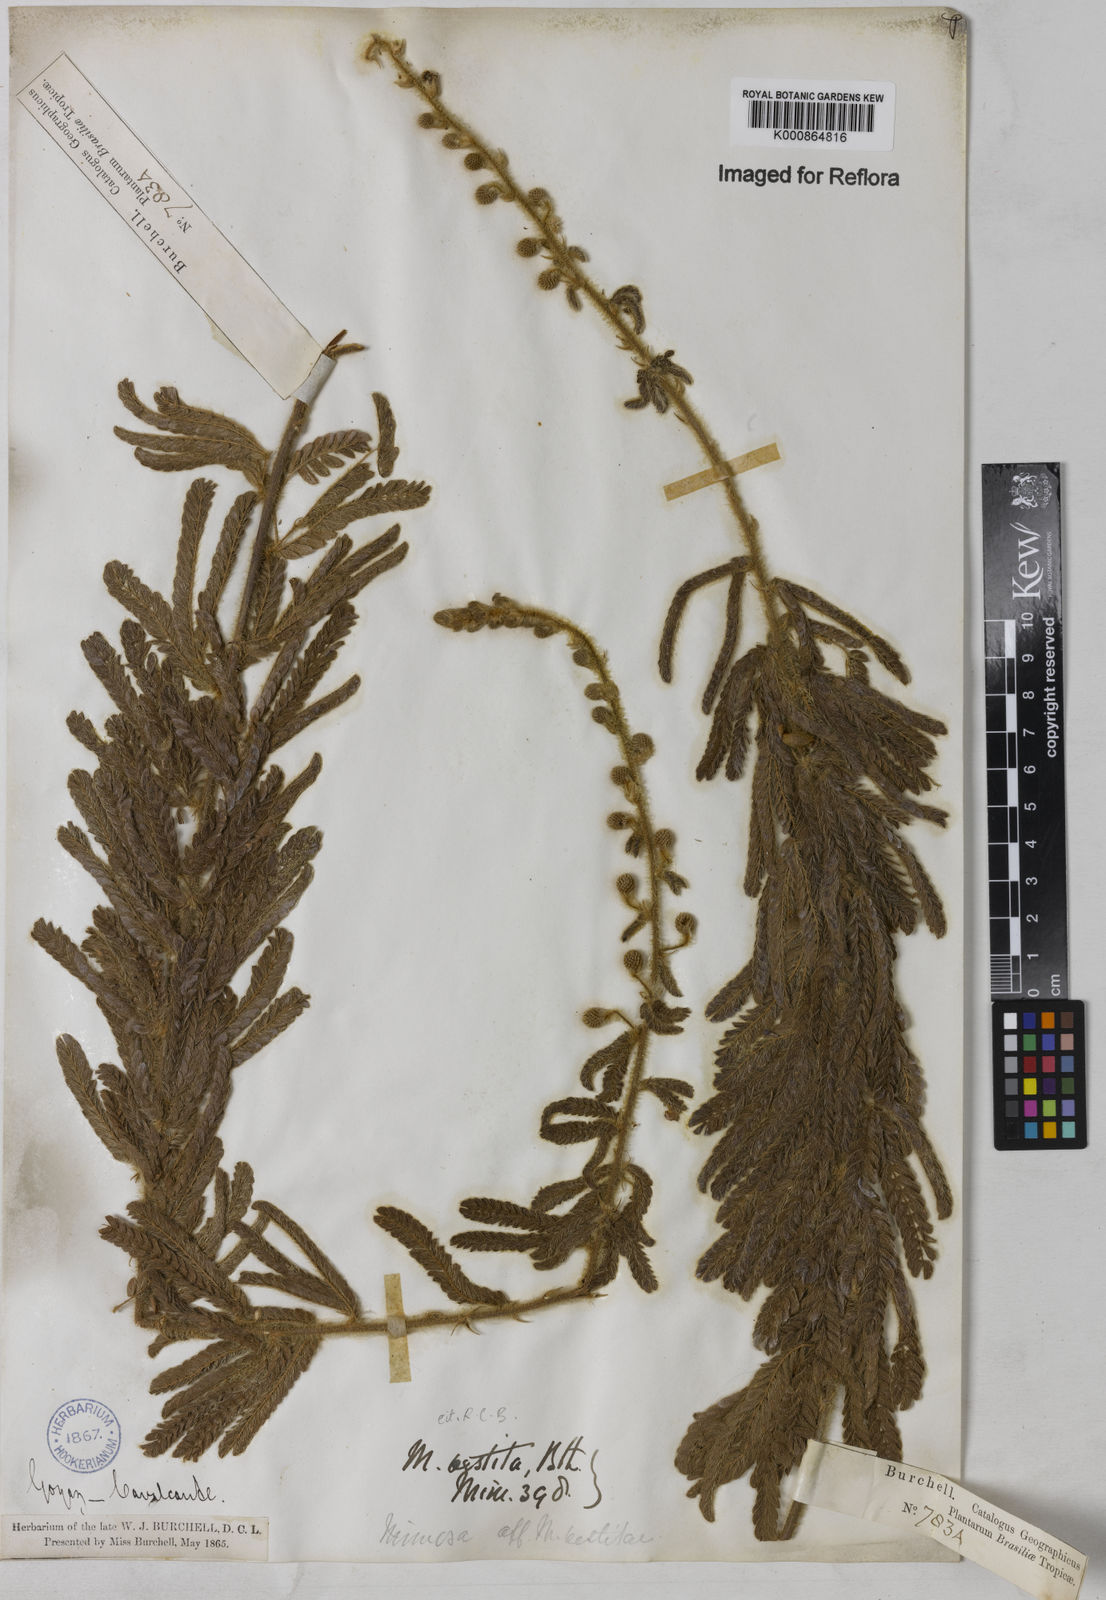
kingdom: Plantae
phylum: Tracheophyta
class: Magnoliopsida
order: Fabales
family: Fabaceae
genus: Mimosa
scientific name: Mimosa vestita
